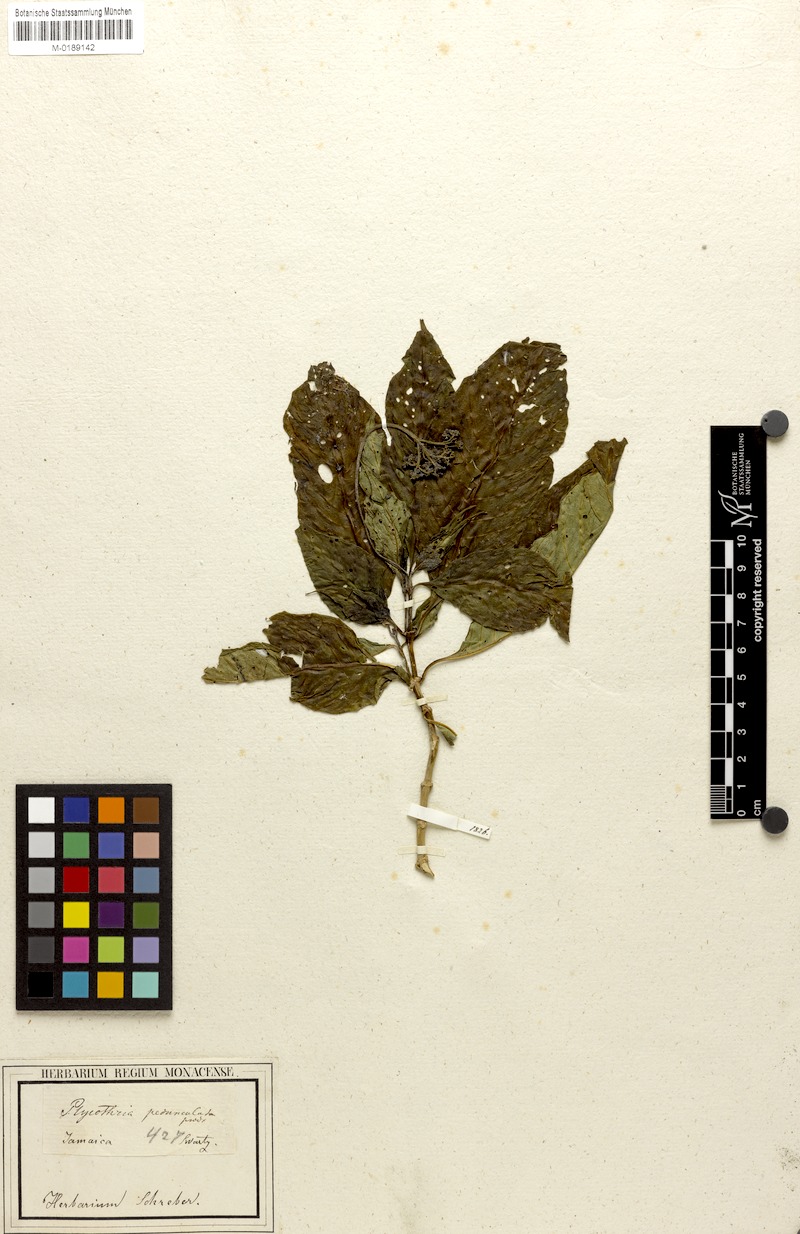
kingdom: Plantae
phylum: Tracheophyta
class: Magnoliopsida
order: Gentianales
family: Rubiaceae
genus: Palicourea
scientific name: Palicourea pedunculata
